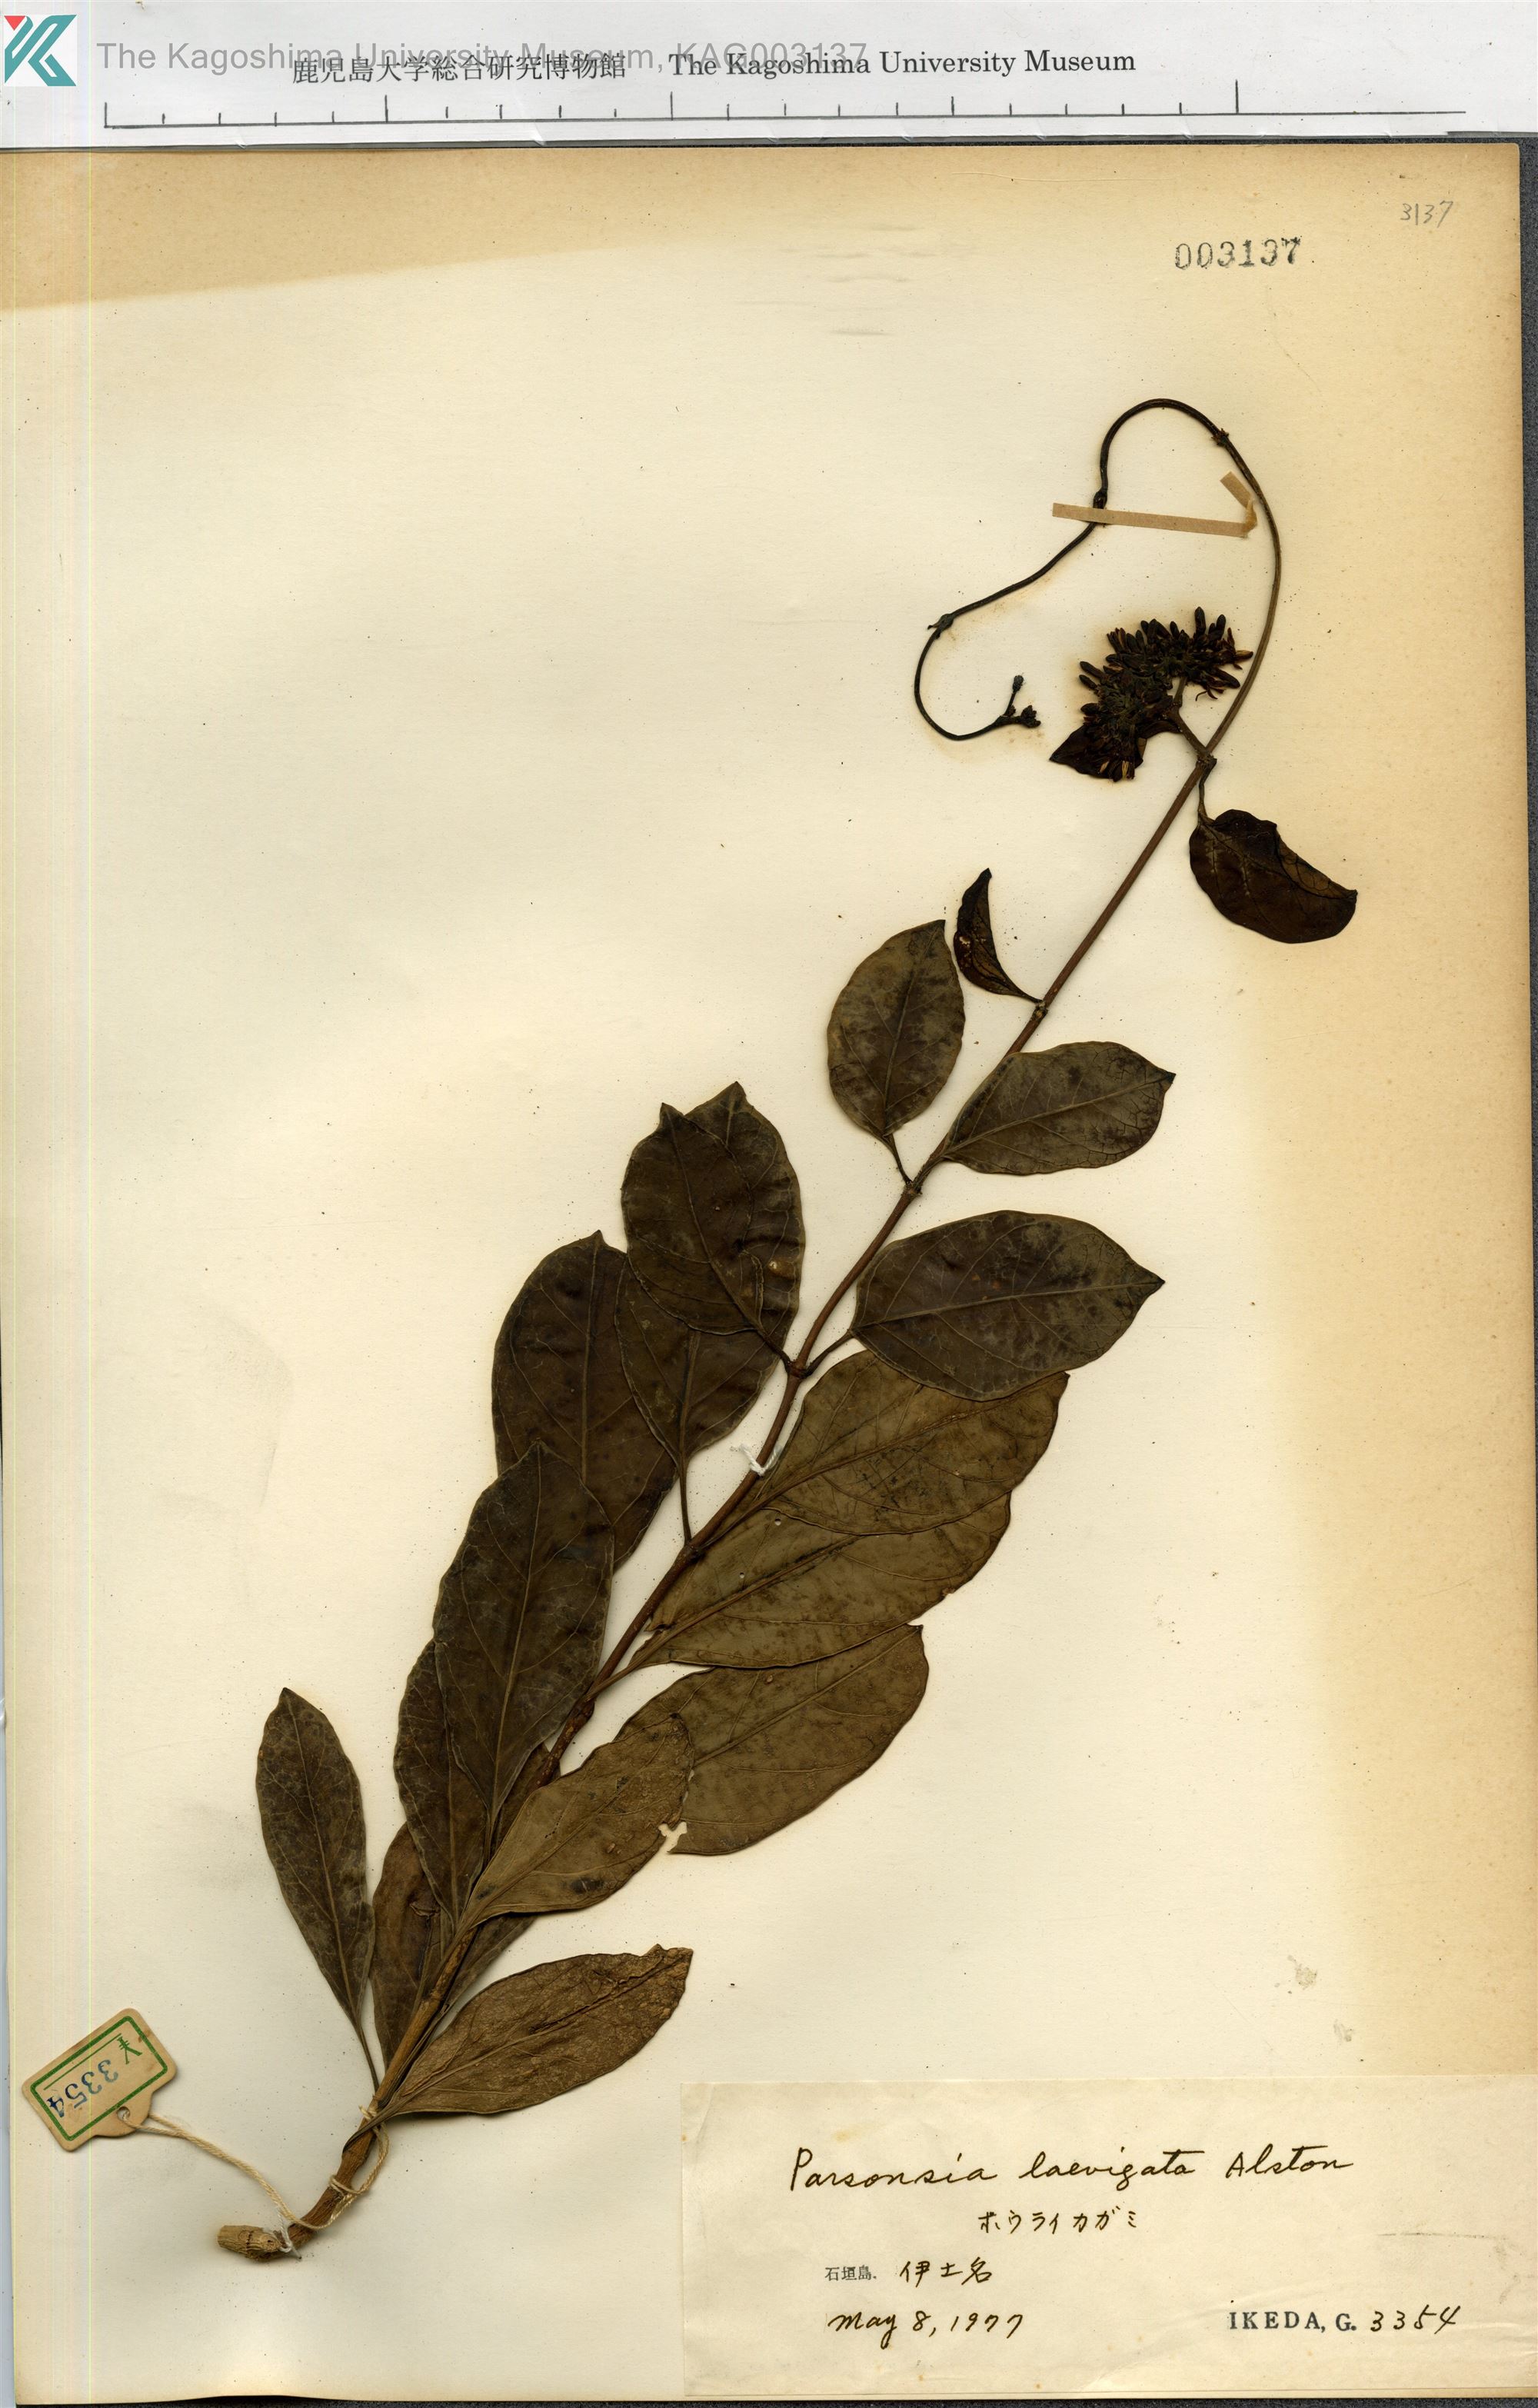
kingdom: Plantae
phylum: Tracheophyta
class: Magnoliopsida
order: Gentianales
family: Apocynaceae
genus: Parsonsia
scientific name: Parsonsia alboflavescens
